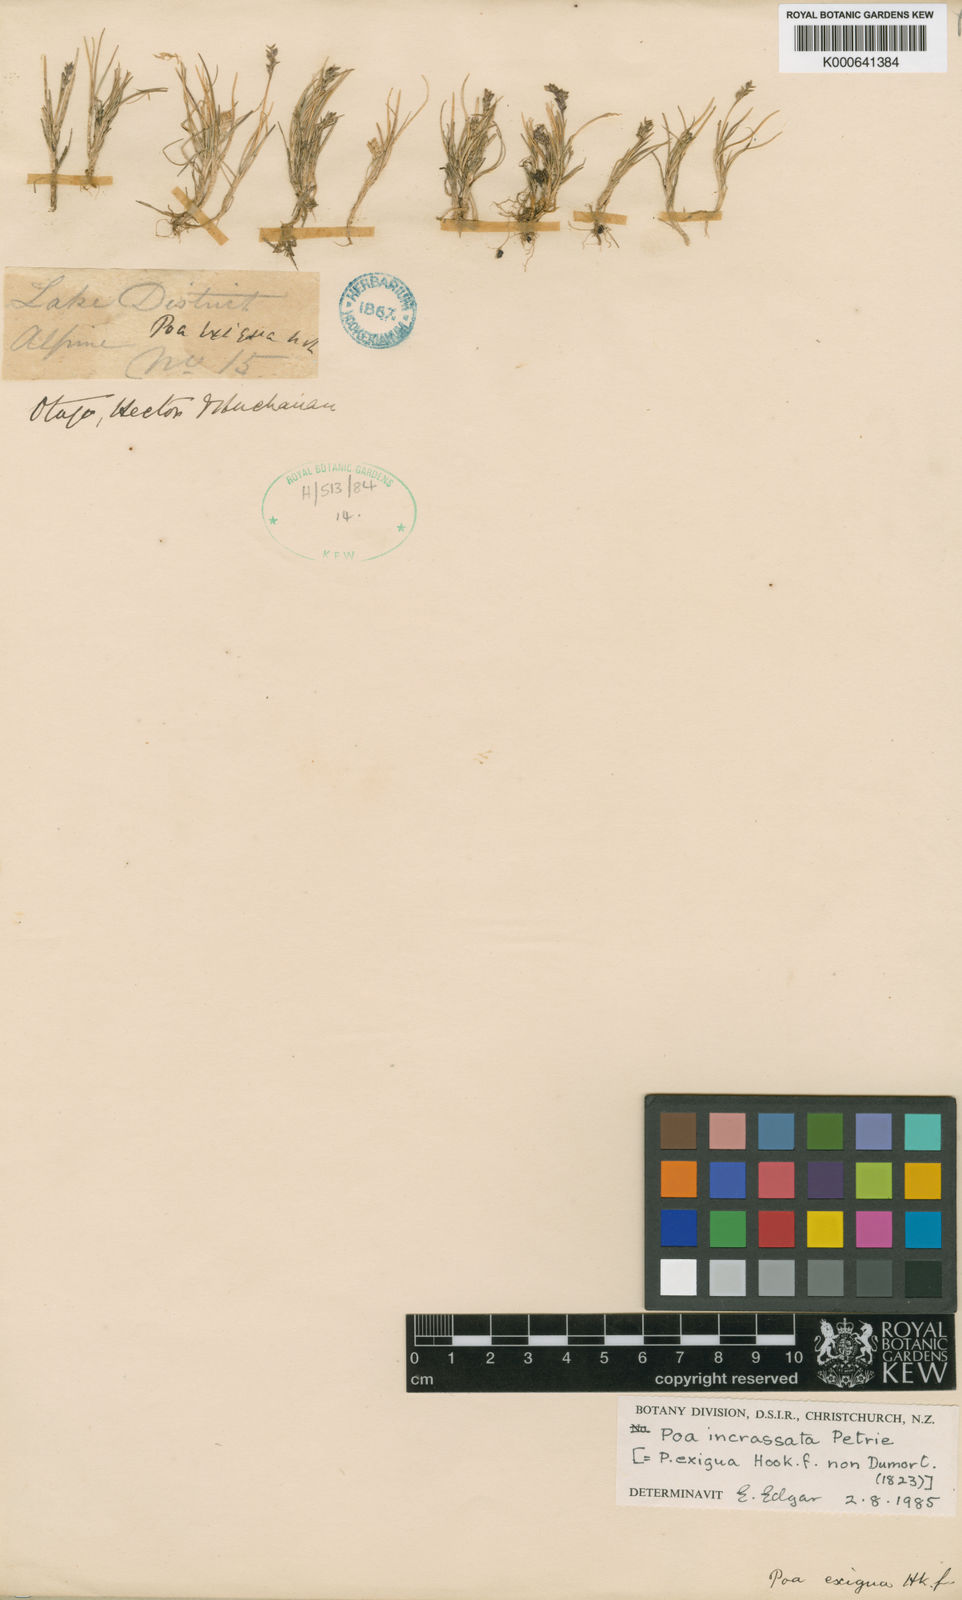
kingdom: Plantae
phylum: Tracheophyta
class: Liliopsida
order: Poales
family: Poaceae
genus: Poa
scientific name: Poa
